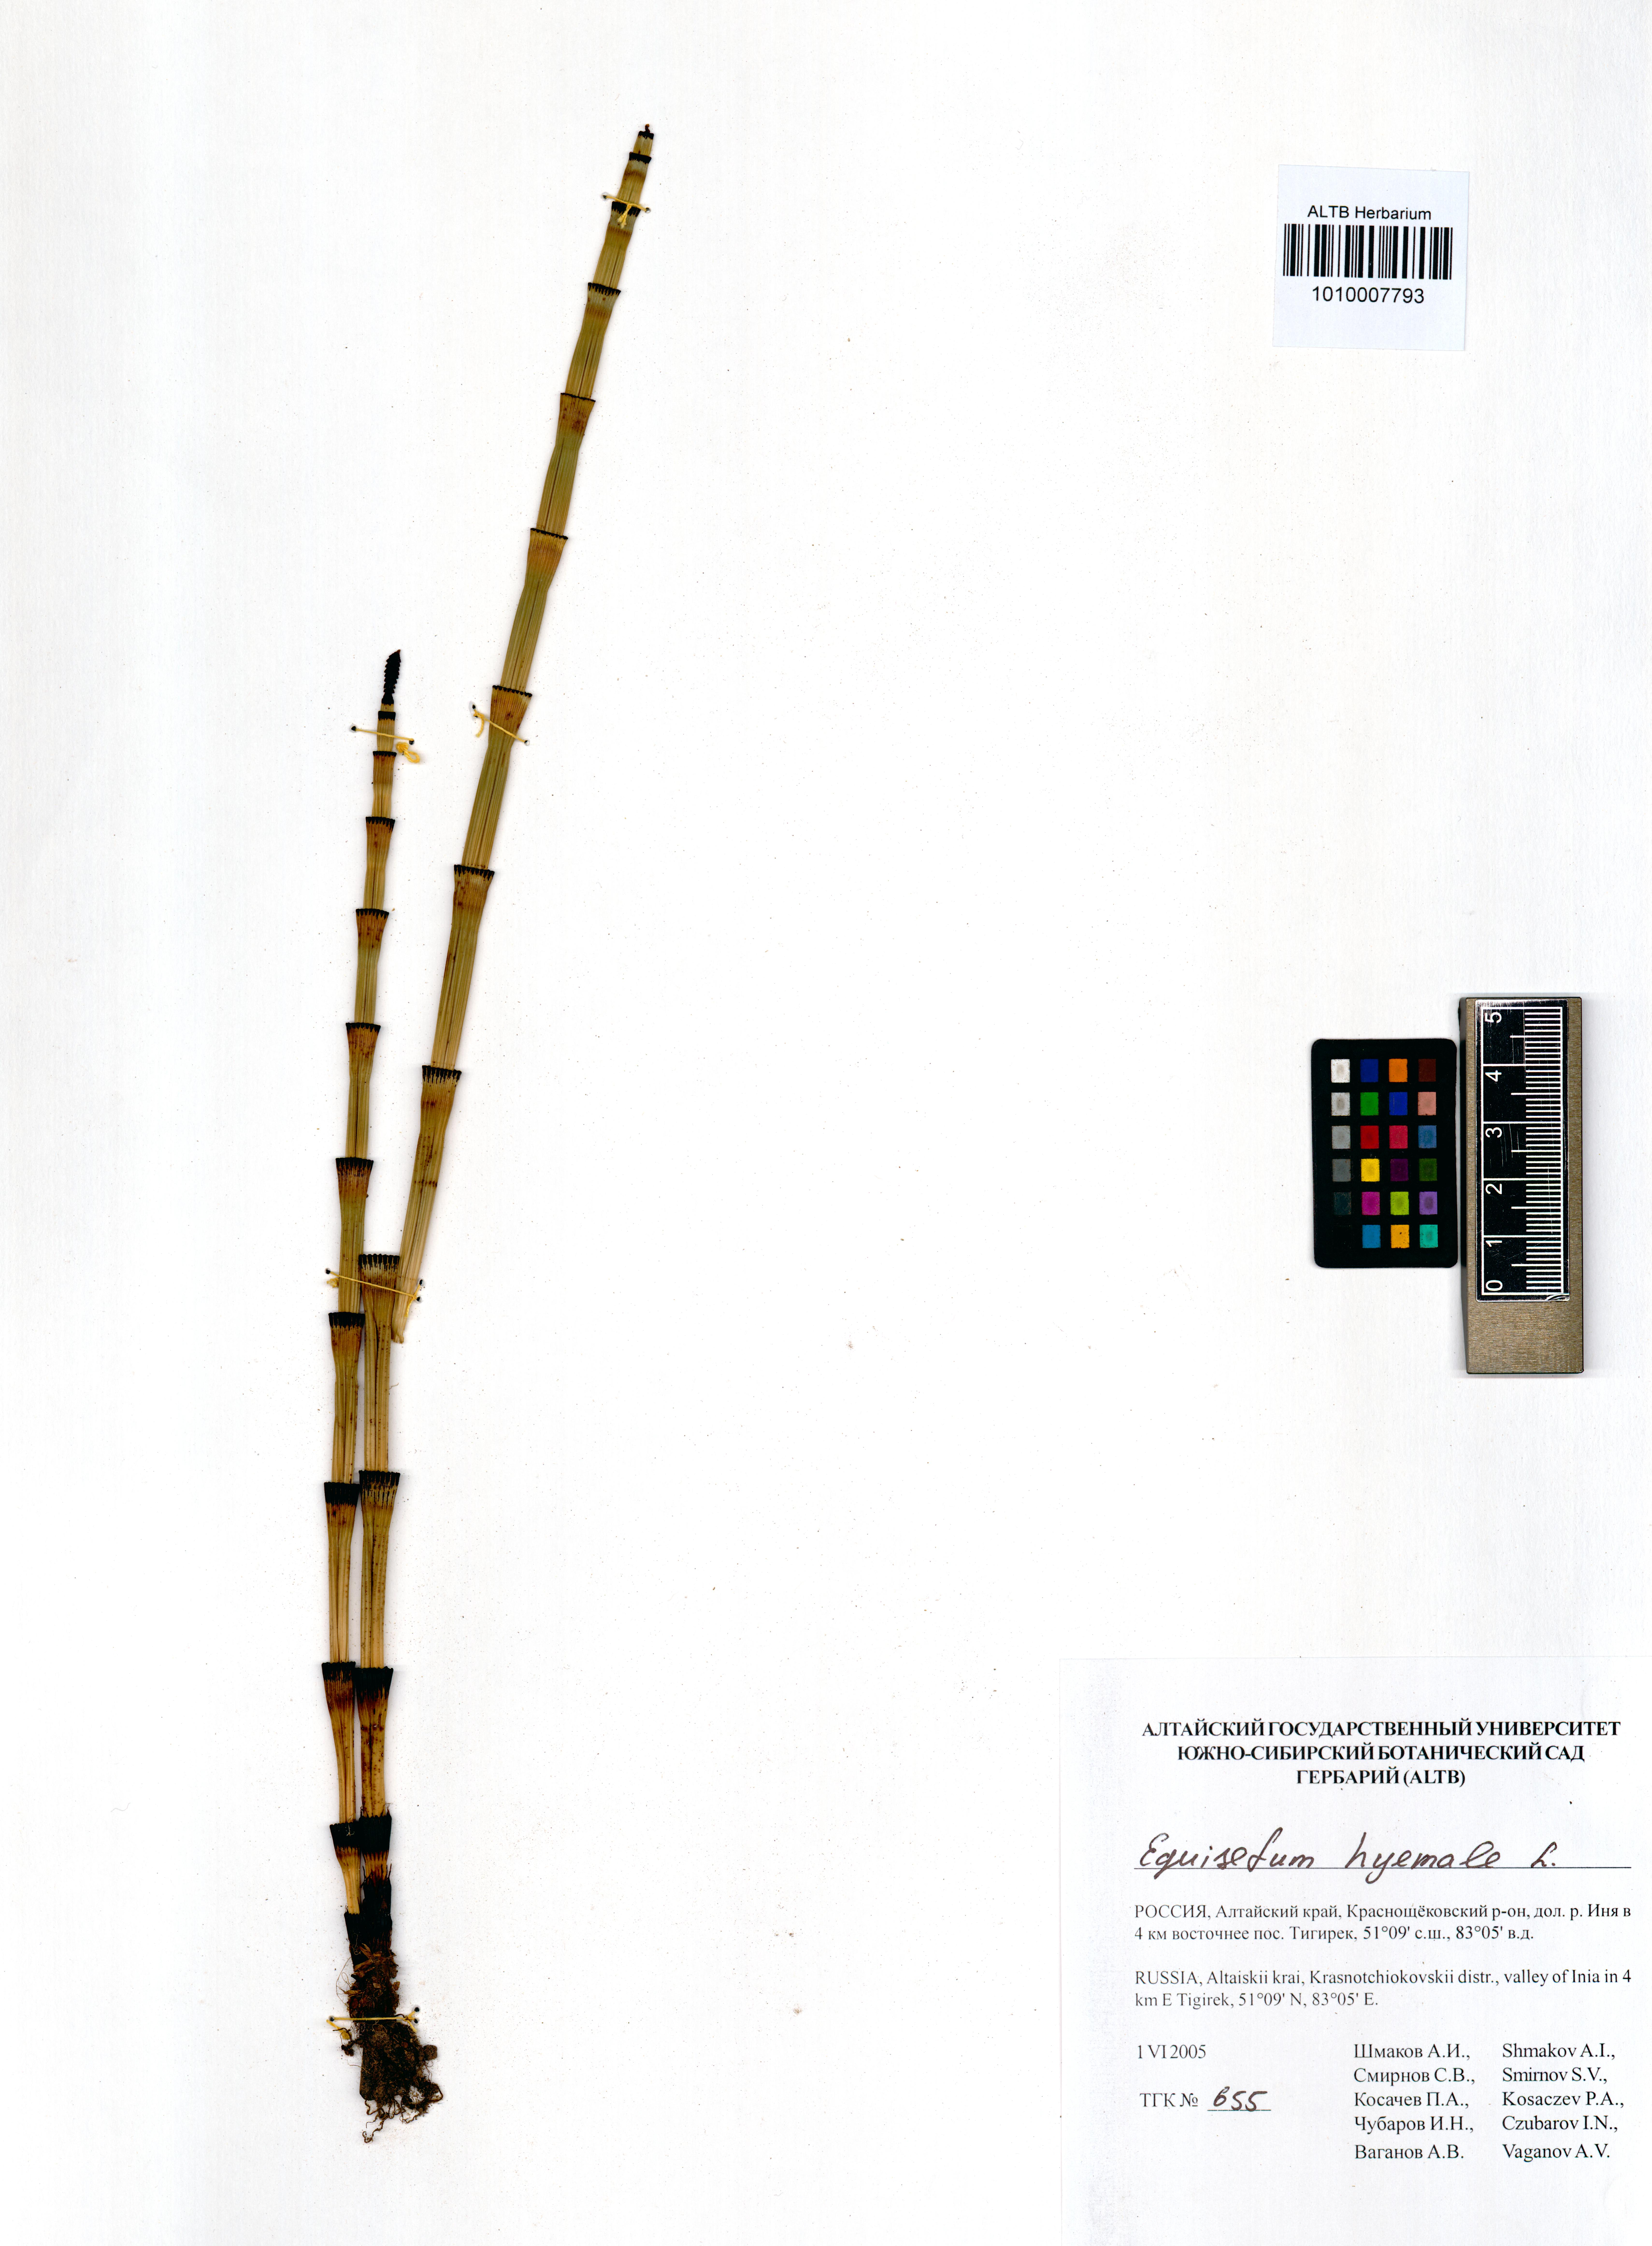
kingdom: Plantae
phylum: Tracheophyta
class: Polypodiopsida
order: Equisetales
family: Equisetaceae
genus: Equisetum
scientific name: Equisetum hyemale
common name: Rough horsetail
